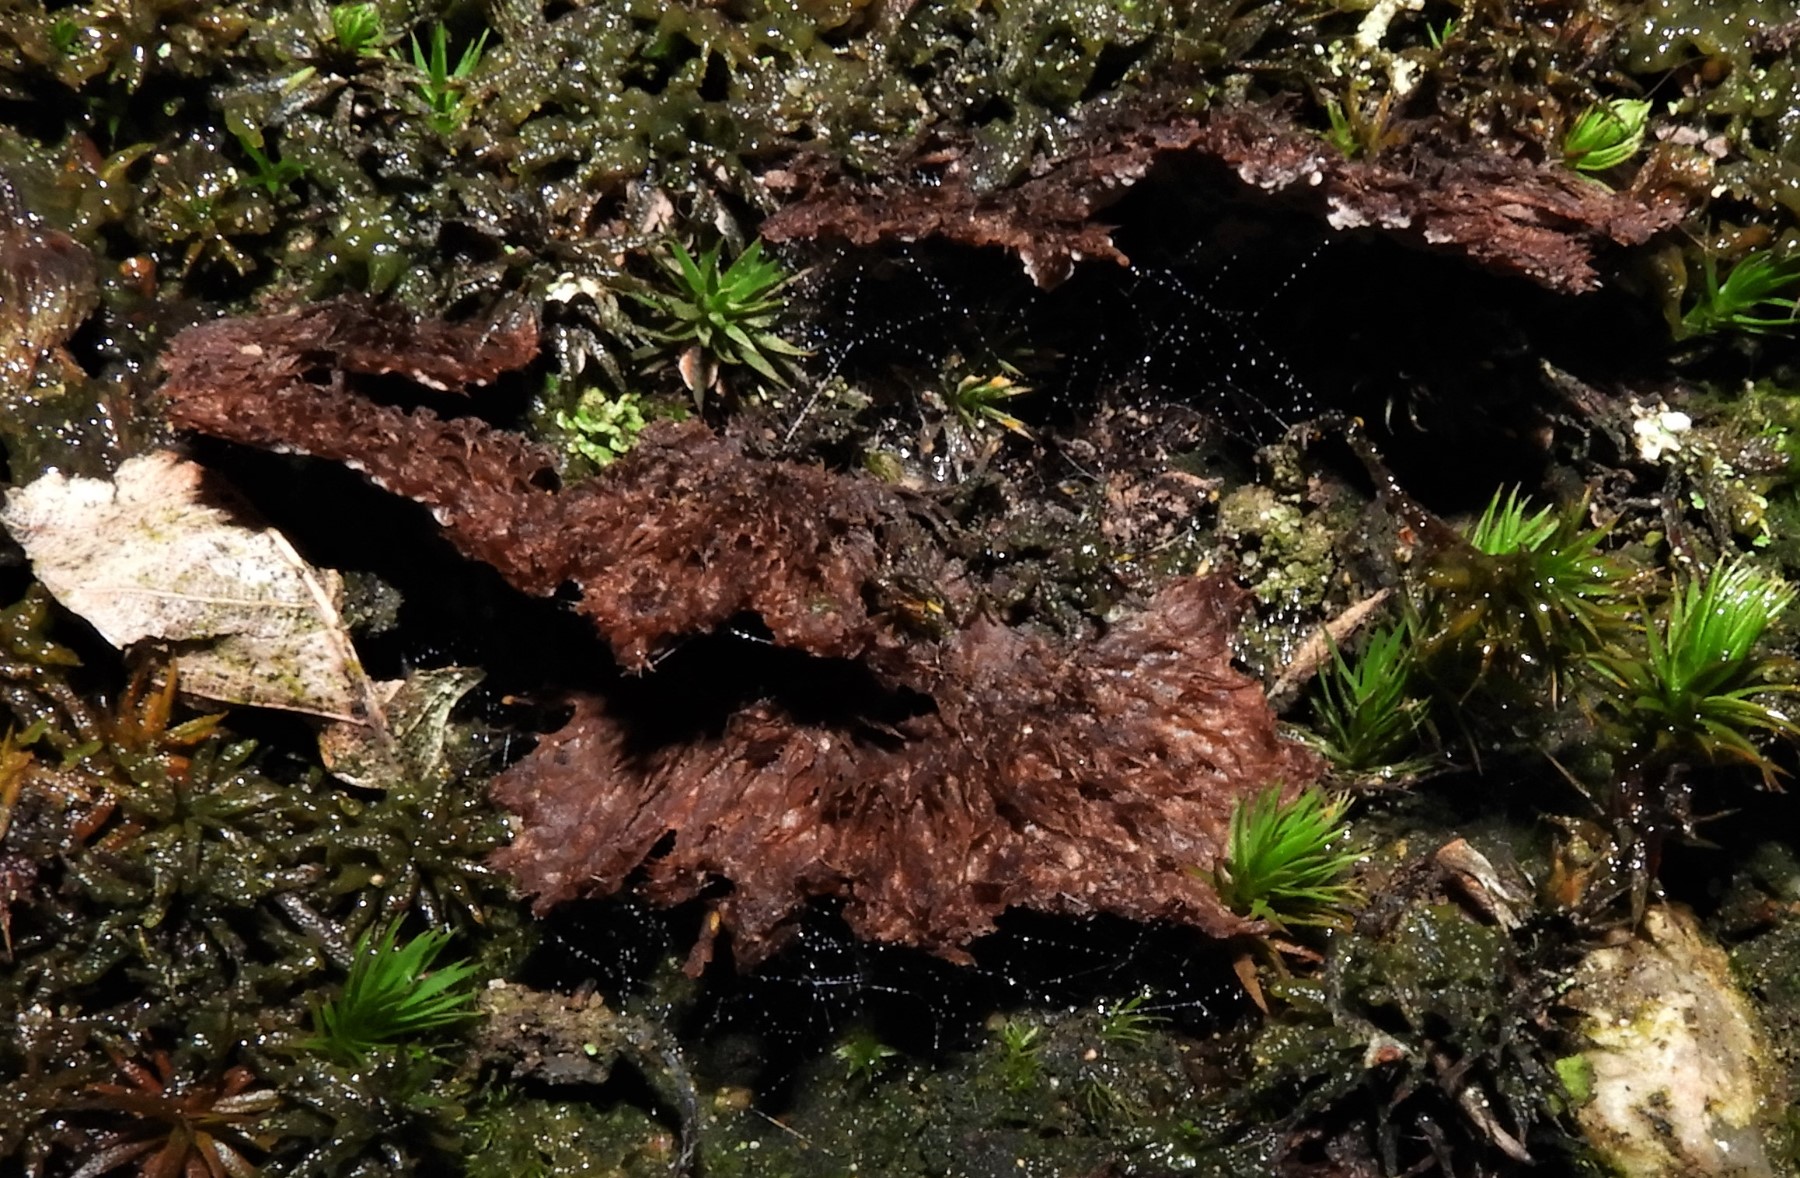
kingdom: Fungi
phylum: Basidiomycota
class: Agaricomycetes
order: Thelephorales
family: Thelephoraceae
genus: Thelephora
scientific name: Thelephora terrestris
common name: fliget frynsesvamp
